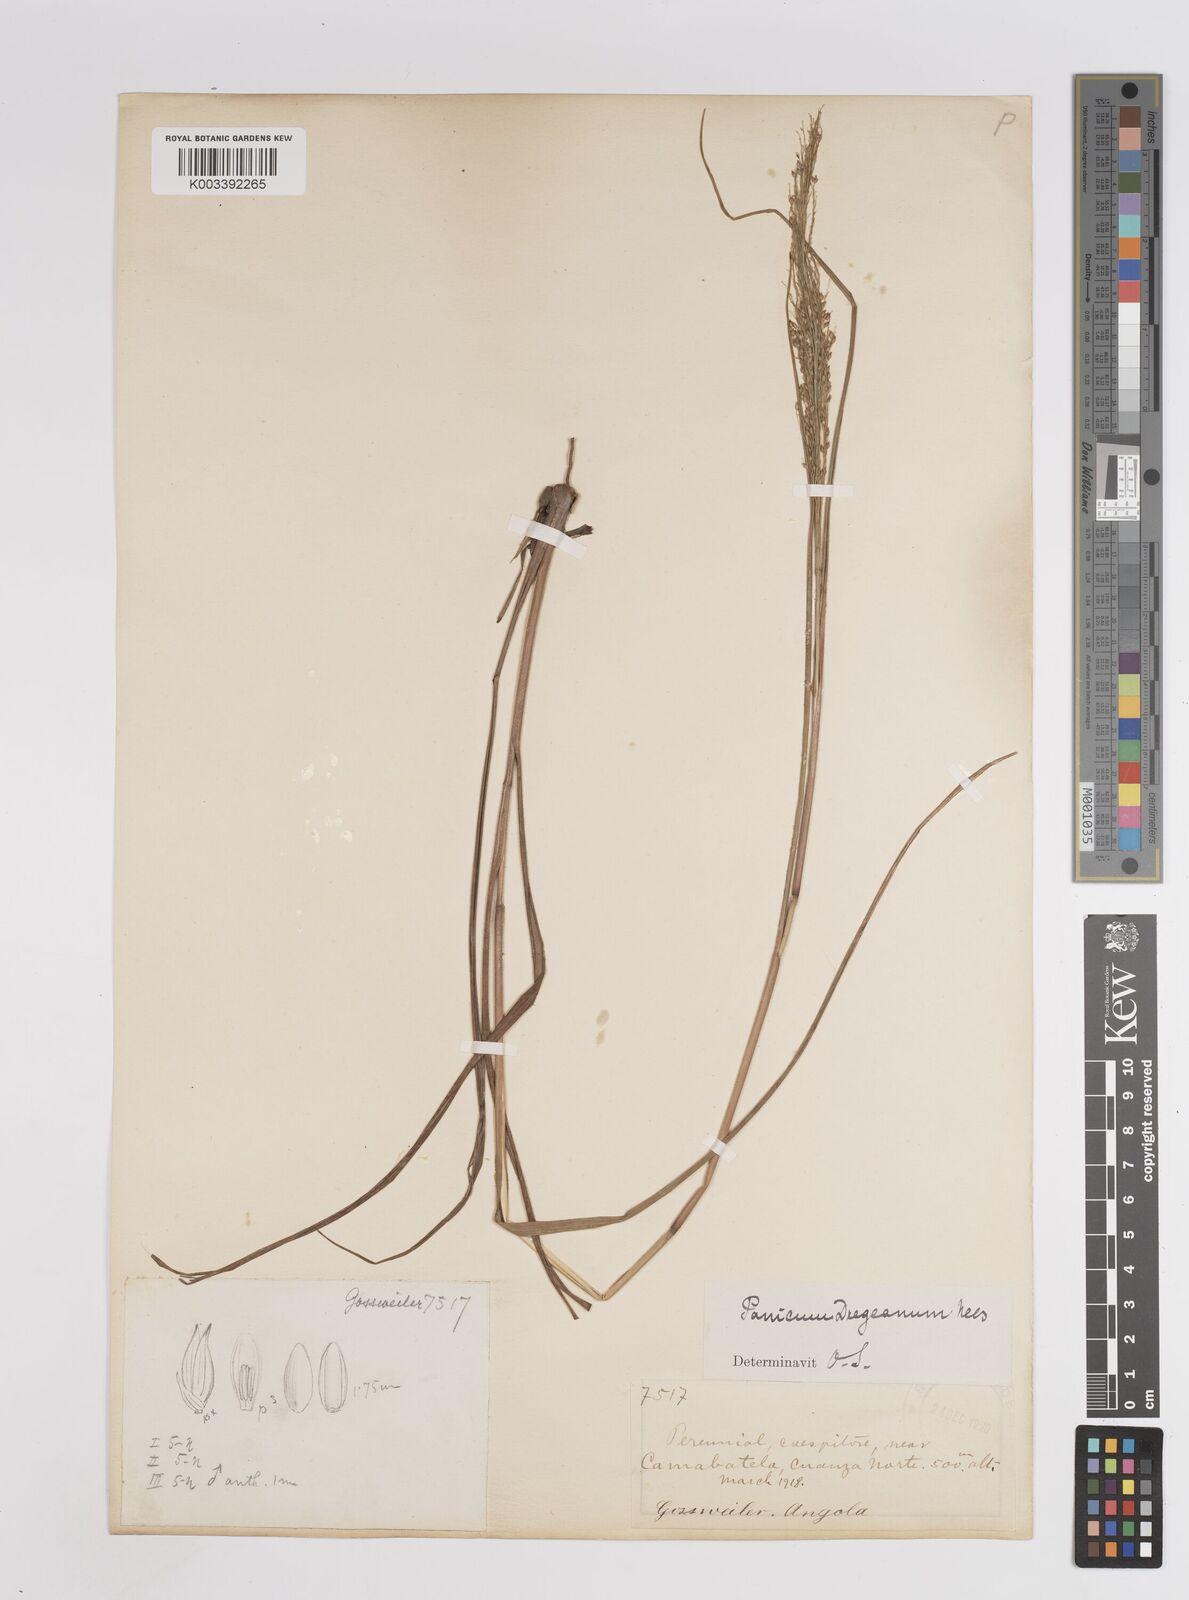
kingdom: Plantae
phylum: Tracheophyta
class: Liliopsida
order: Poales
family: Poaceae
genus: Panicum
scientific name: Panicum dregeanum
